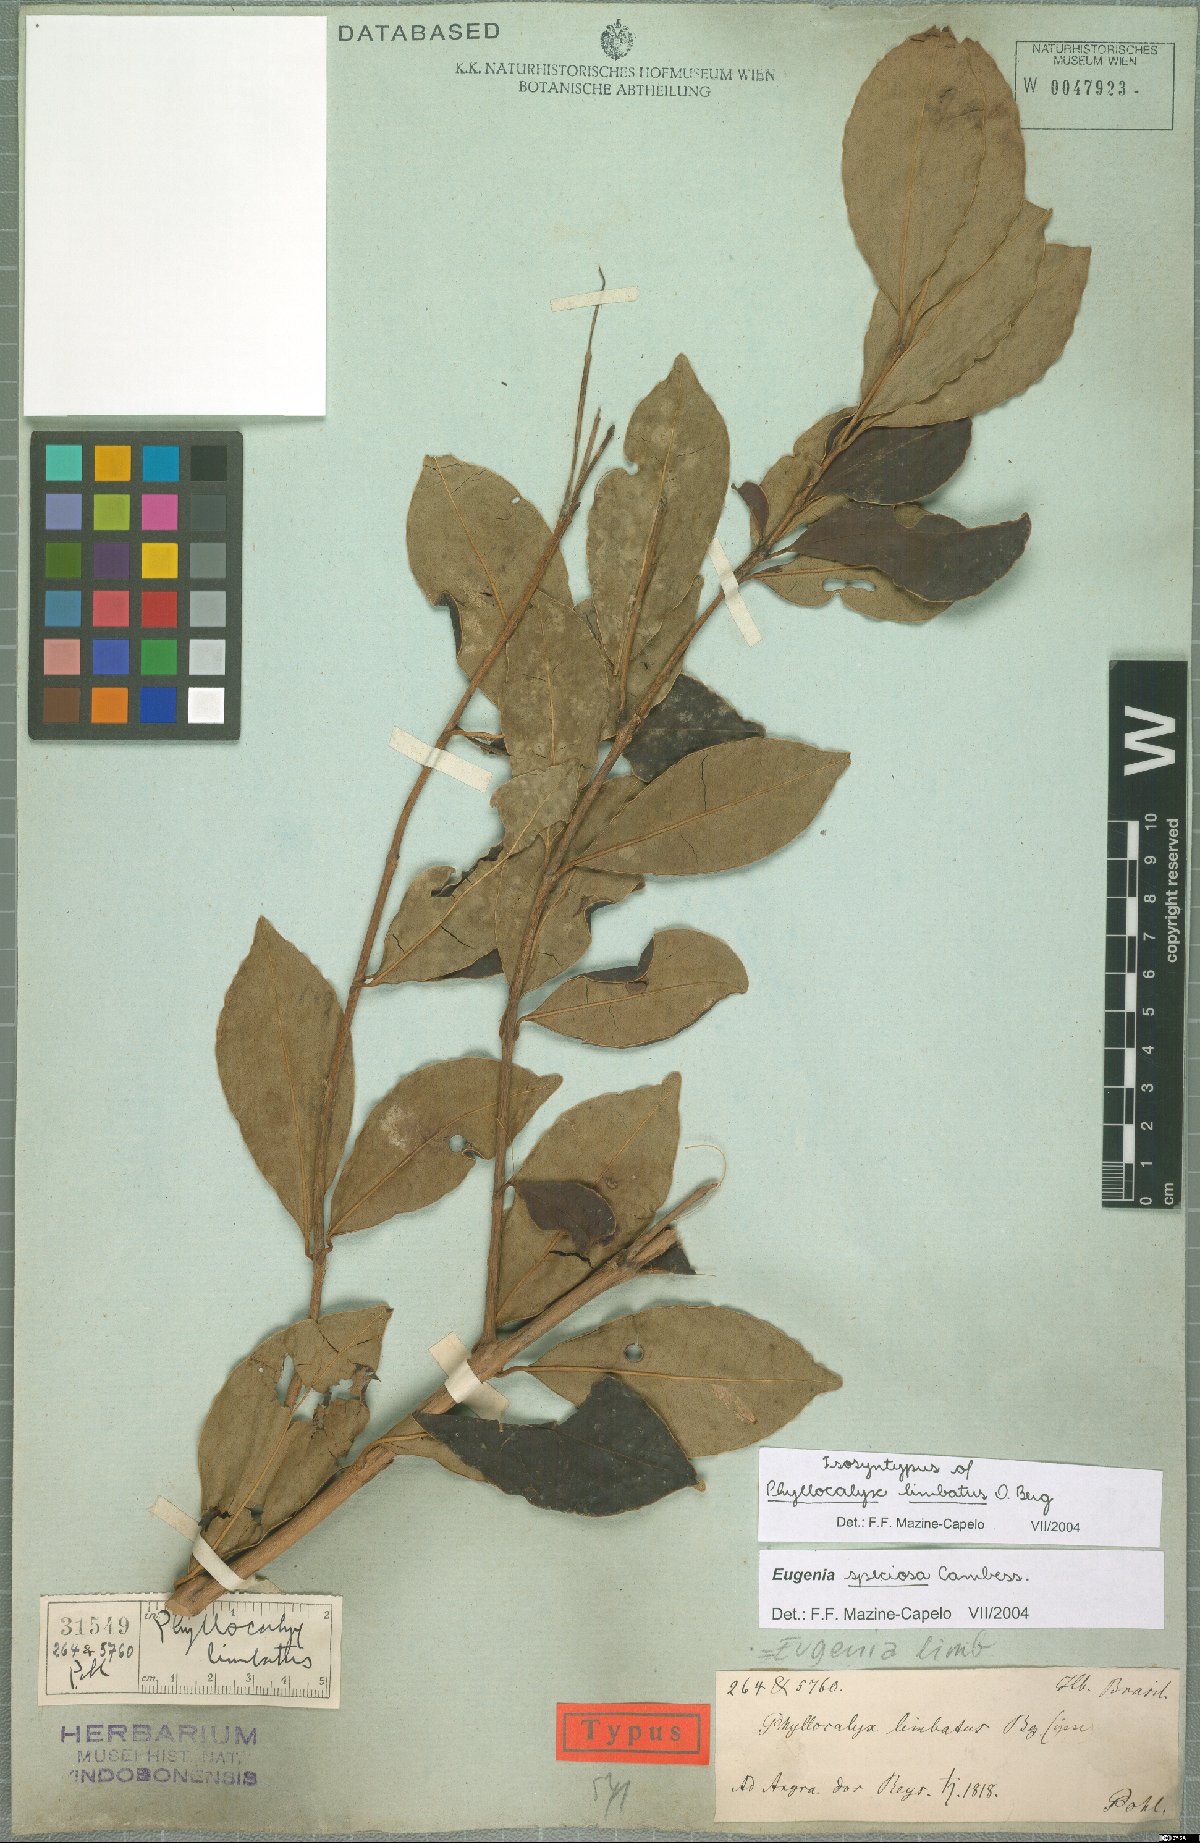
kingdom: Plantae
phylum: Tracheophyta
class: Magnoliopsida
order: Myrtales
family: Myrtaceae
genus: Eugenia
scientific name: Eugenia speciosa
